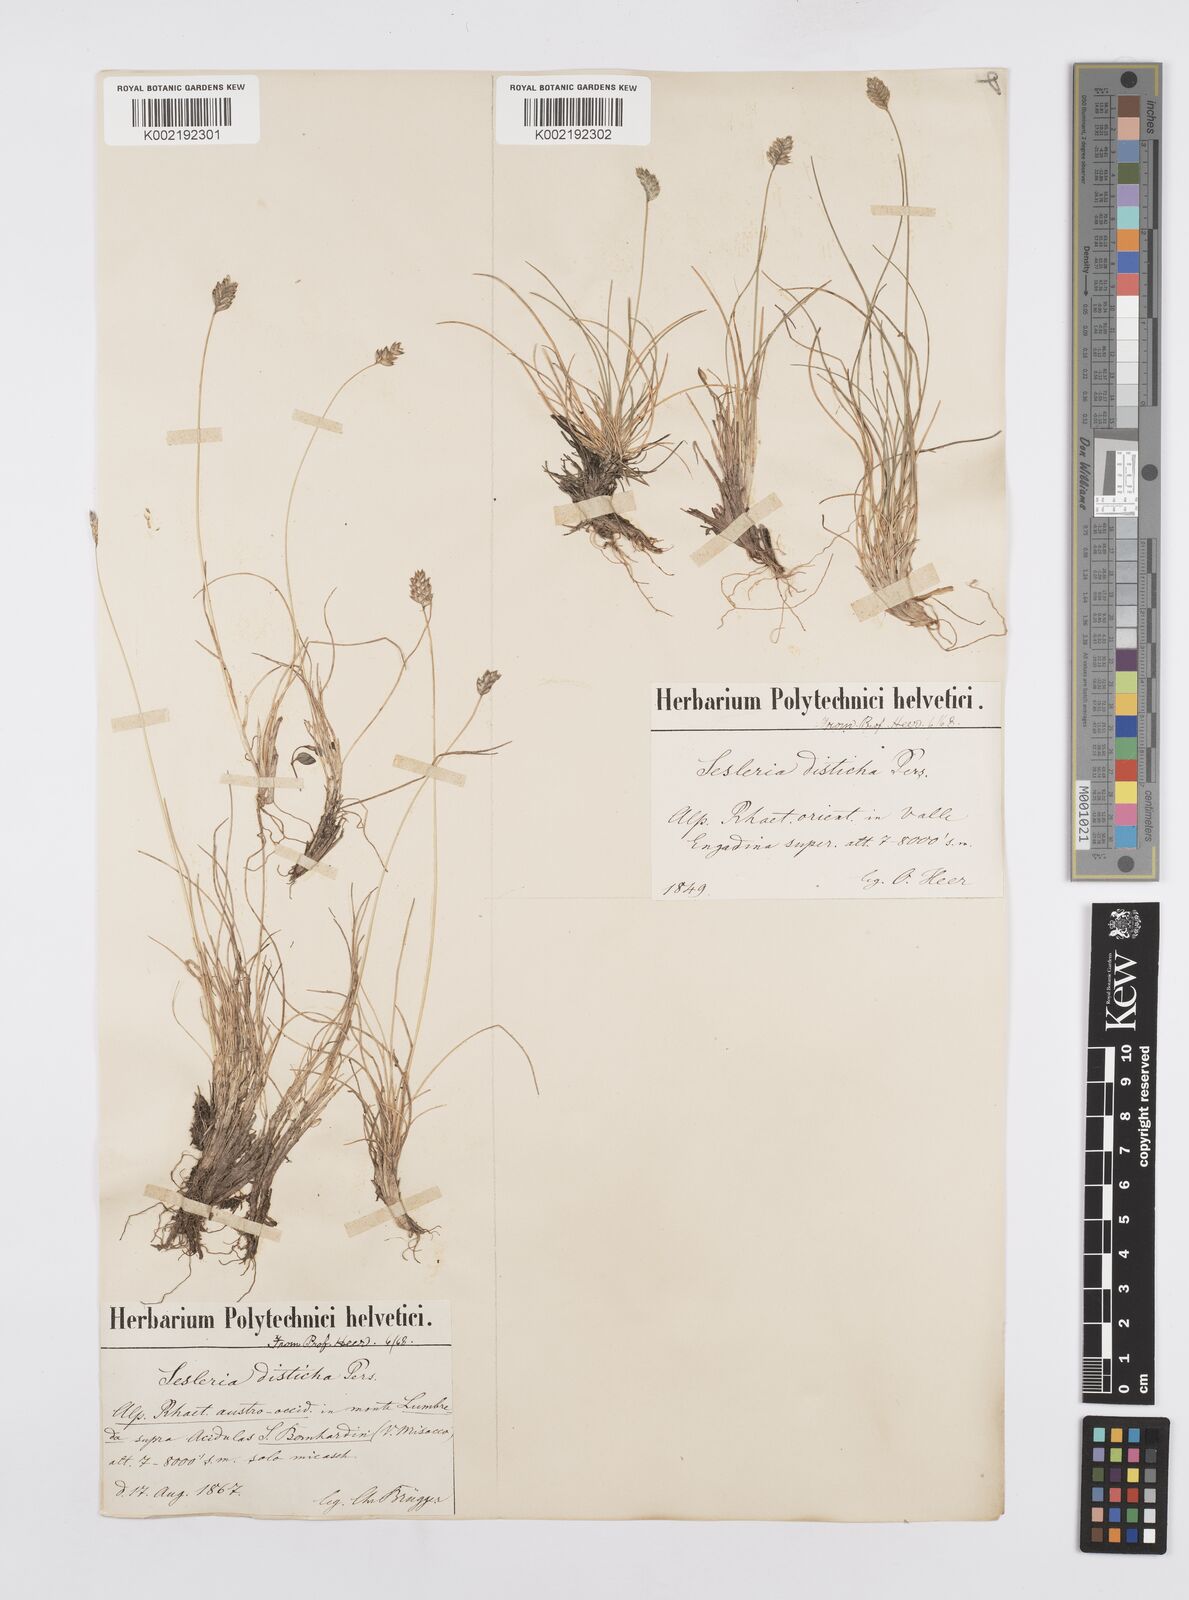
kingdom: Plantae
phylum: Tracheophyta
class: Liliopsida
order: Poales
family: Poaceae
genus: Oreochloa
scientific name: Oreochloa disticha
